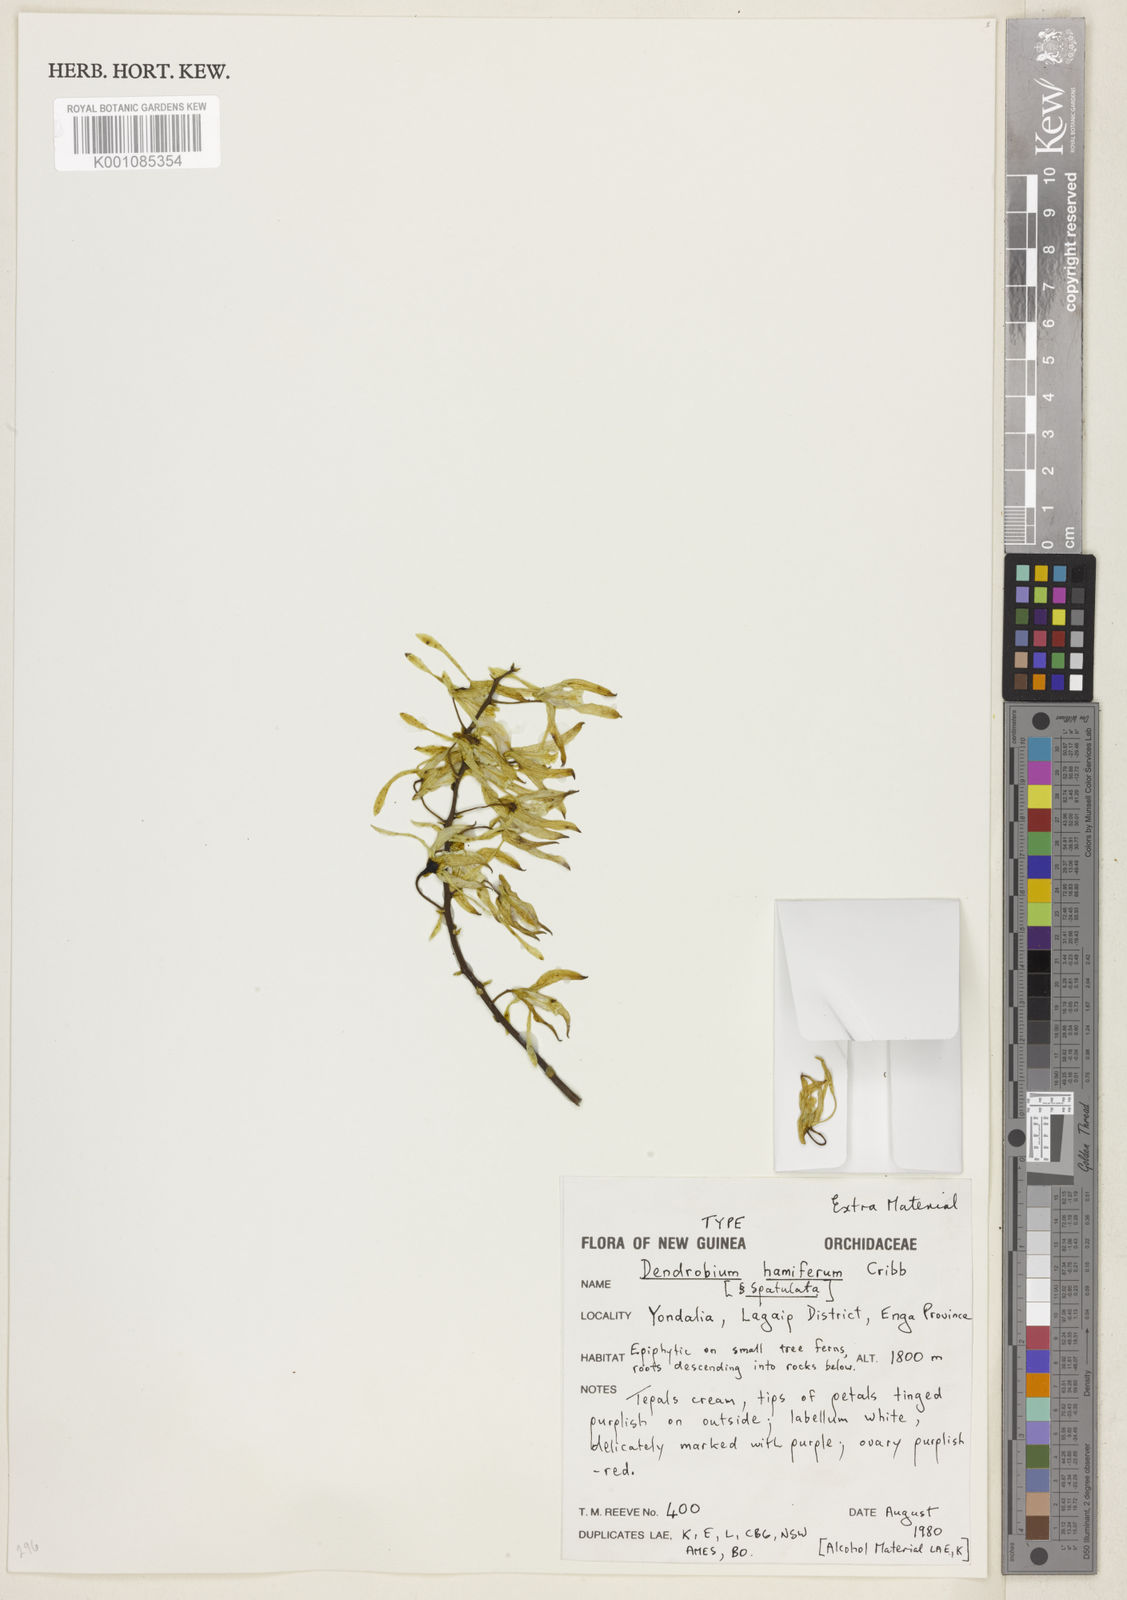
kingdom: Plantae
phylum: Tracheophyta
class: Liliopsida
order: Asparagales
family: Orchidaceae
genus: Dendrobium
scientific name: Dendrobium
